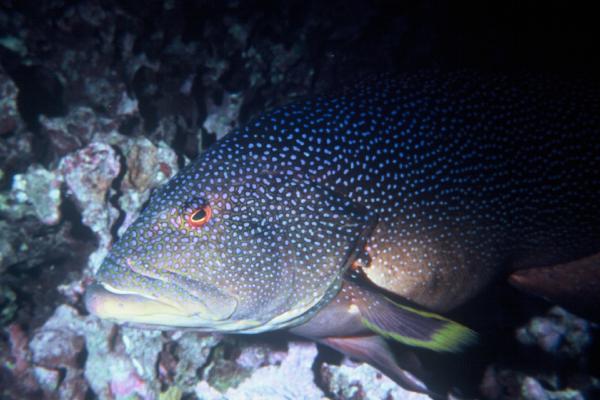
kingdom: Animalia
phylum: Chordata
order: Perciformes
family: Serranidae
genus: Variola
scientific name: Variola louti
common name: Yellow-edged lyretail
